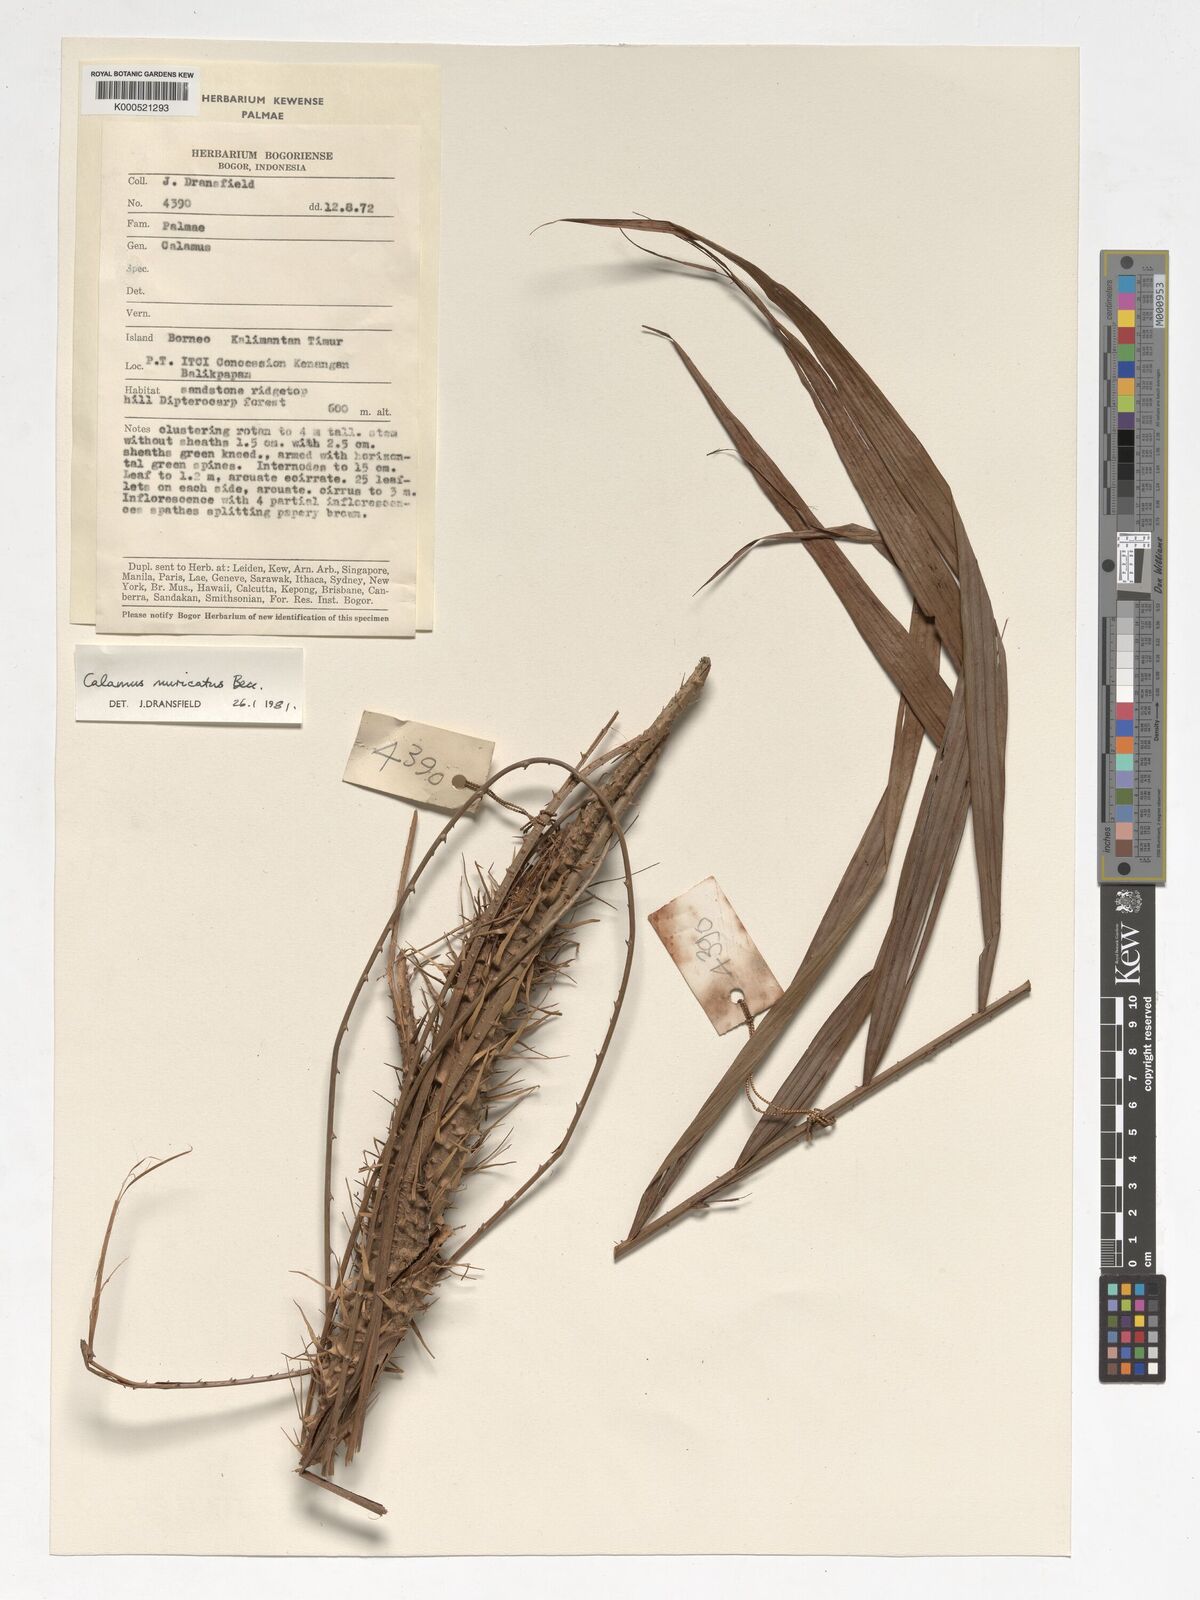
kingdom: Plantae
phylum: Tracheophyta
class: Liliopsida
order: Arecales
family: Arecaceae
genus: Calamus
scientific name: Calamus muricatus
